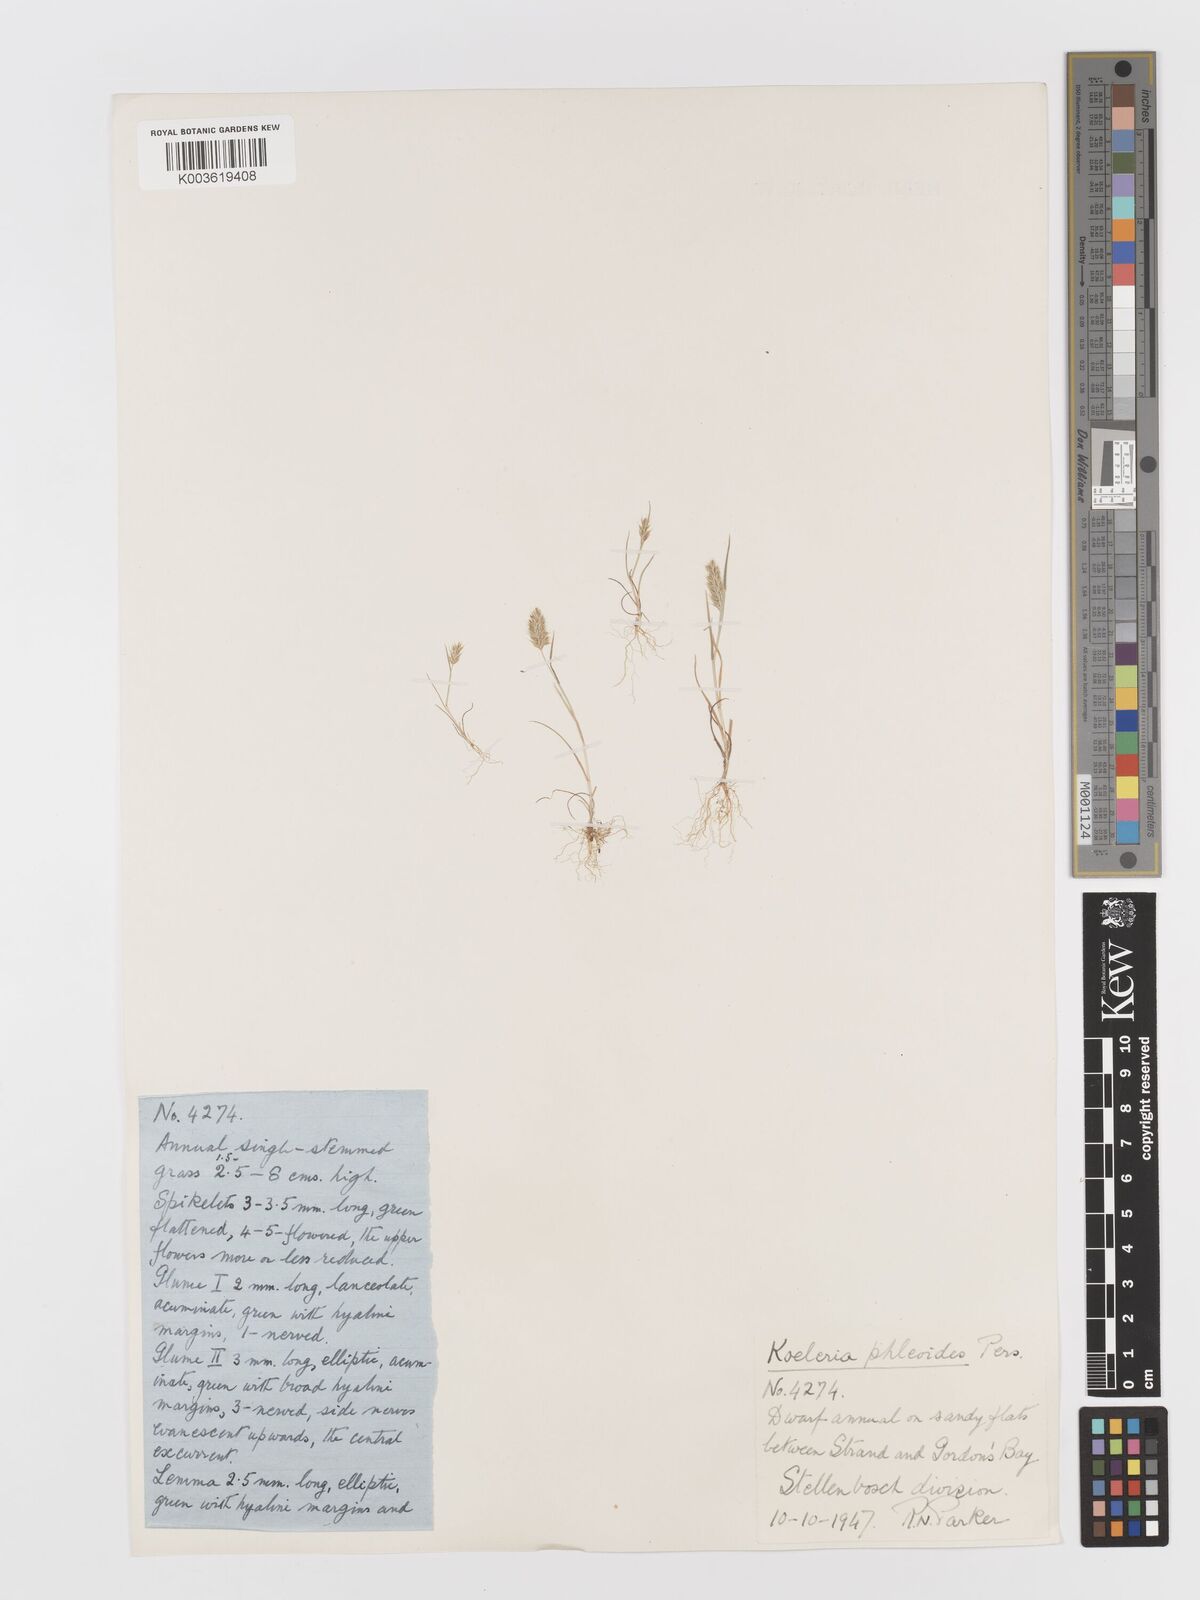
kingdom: Plantae
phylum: Tracheophyta
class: Liliopsida
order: Poales
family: Poaceae
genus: Rostraria
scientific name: Rostraria cristata
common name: Mediterranean hair-grass
